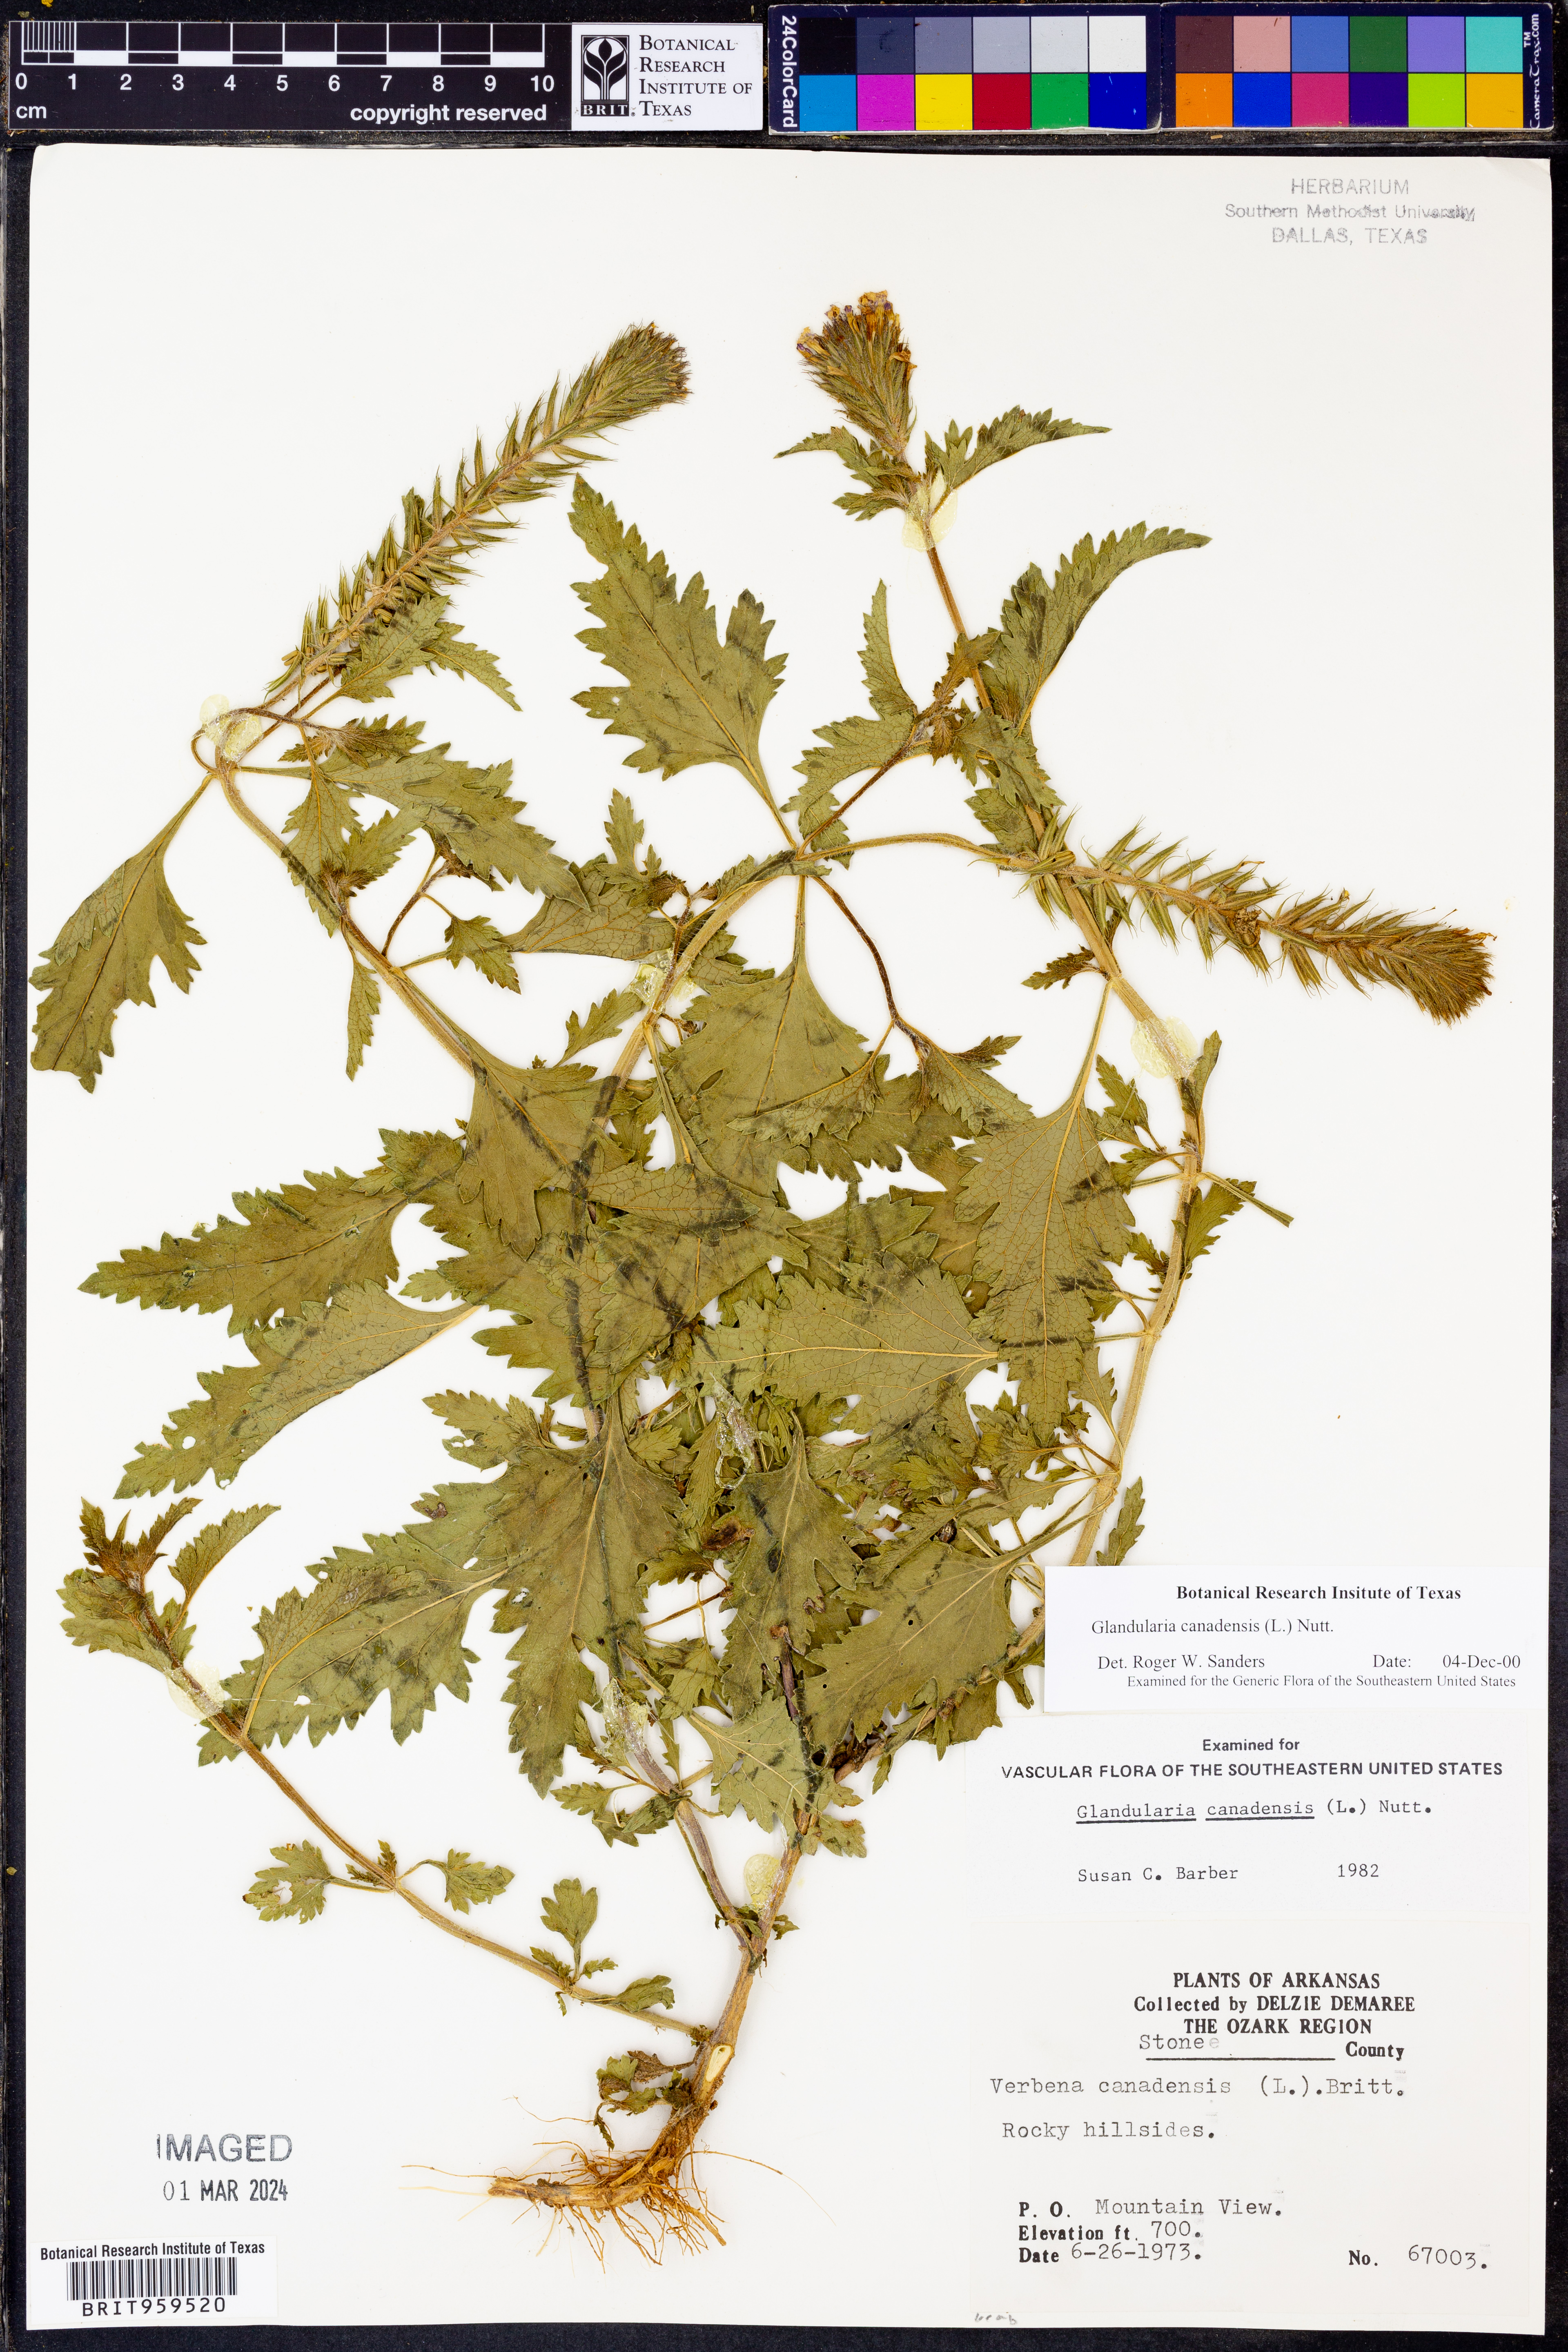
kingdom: Plantae
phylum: Tracheophyta
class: Magnoliopsida
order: Lamiales
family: Verbenaceae
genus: Verbena
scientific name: Verbena canadensis
